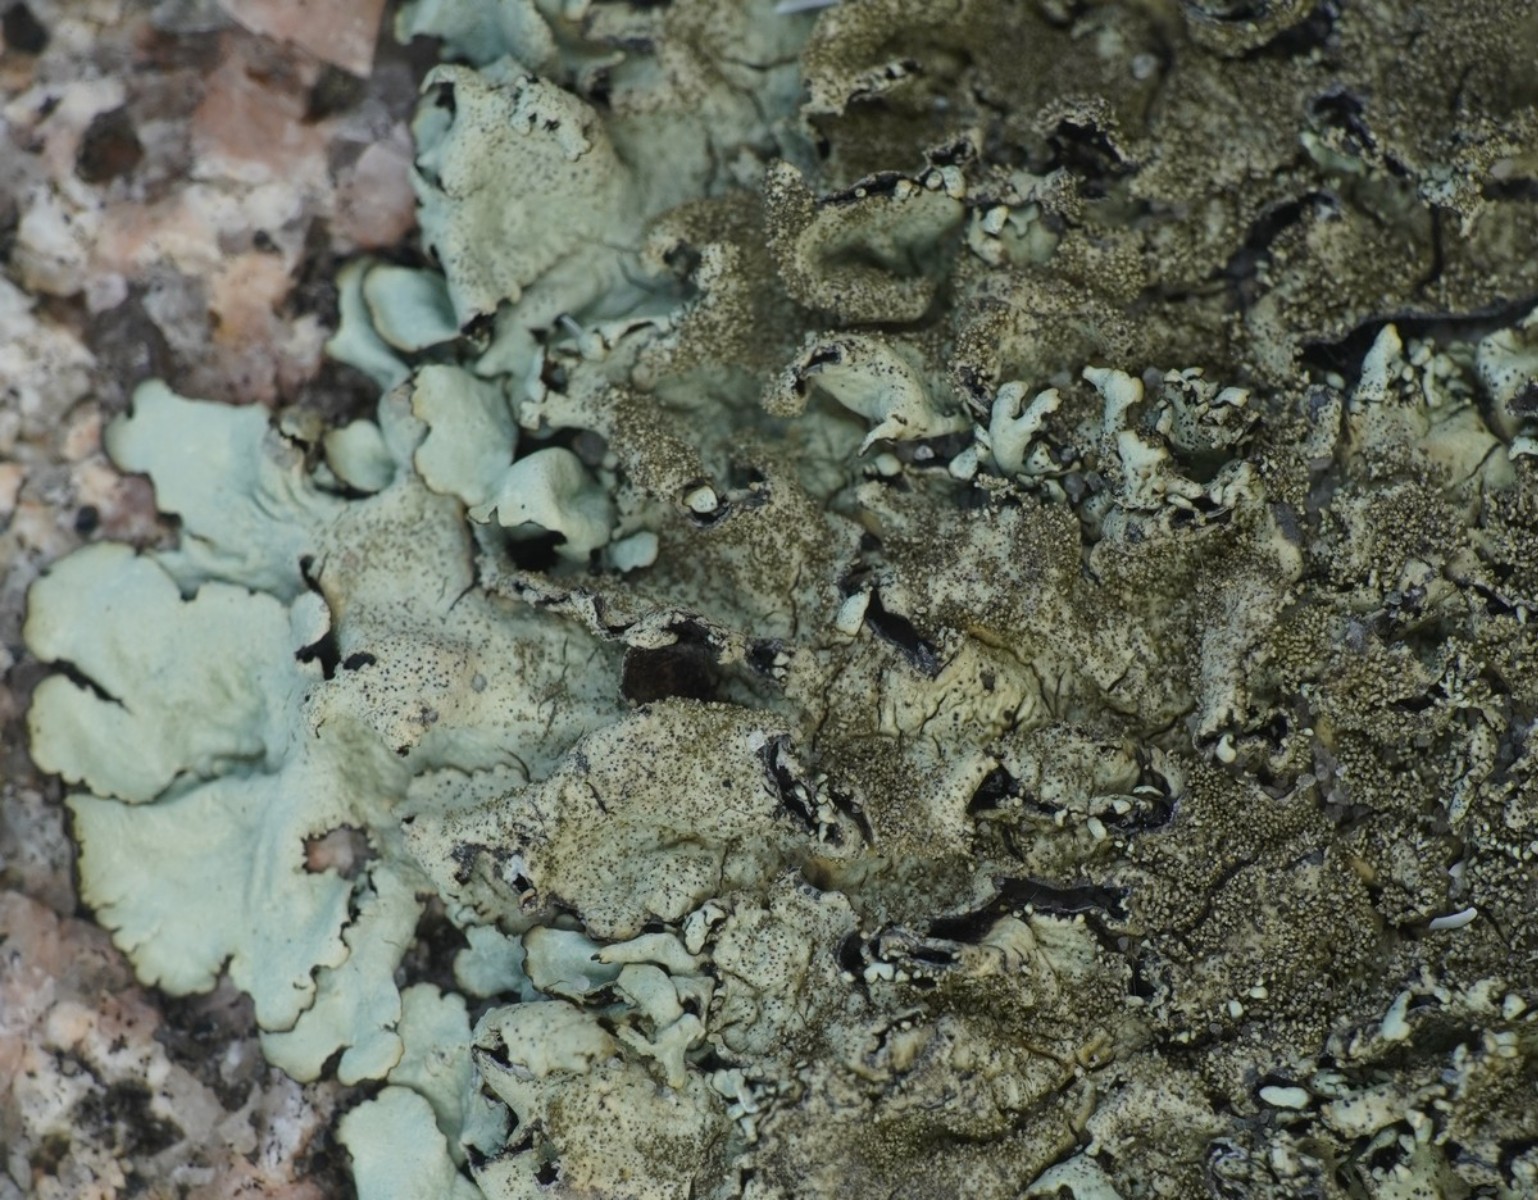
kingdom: Fungi
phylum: Ascomycota
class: Lecanoromycetes
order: Lecanorales
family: Parmeliaceae
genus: Xanthoparmelia
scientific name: Xanthoparmelia conspersa
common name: messing-skållav
